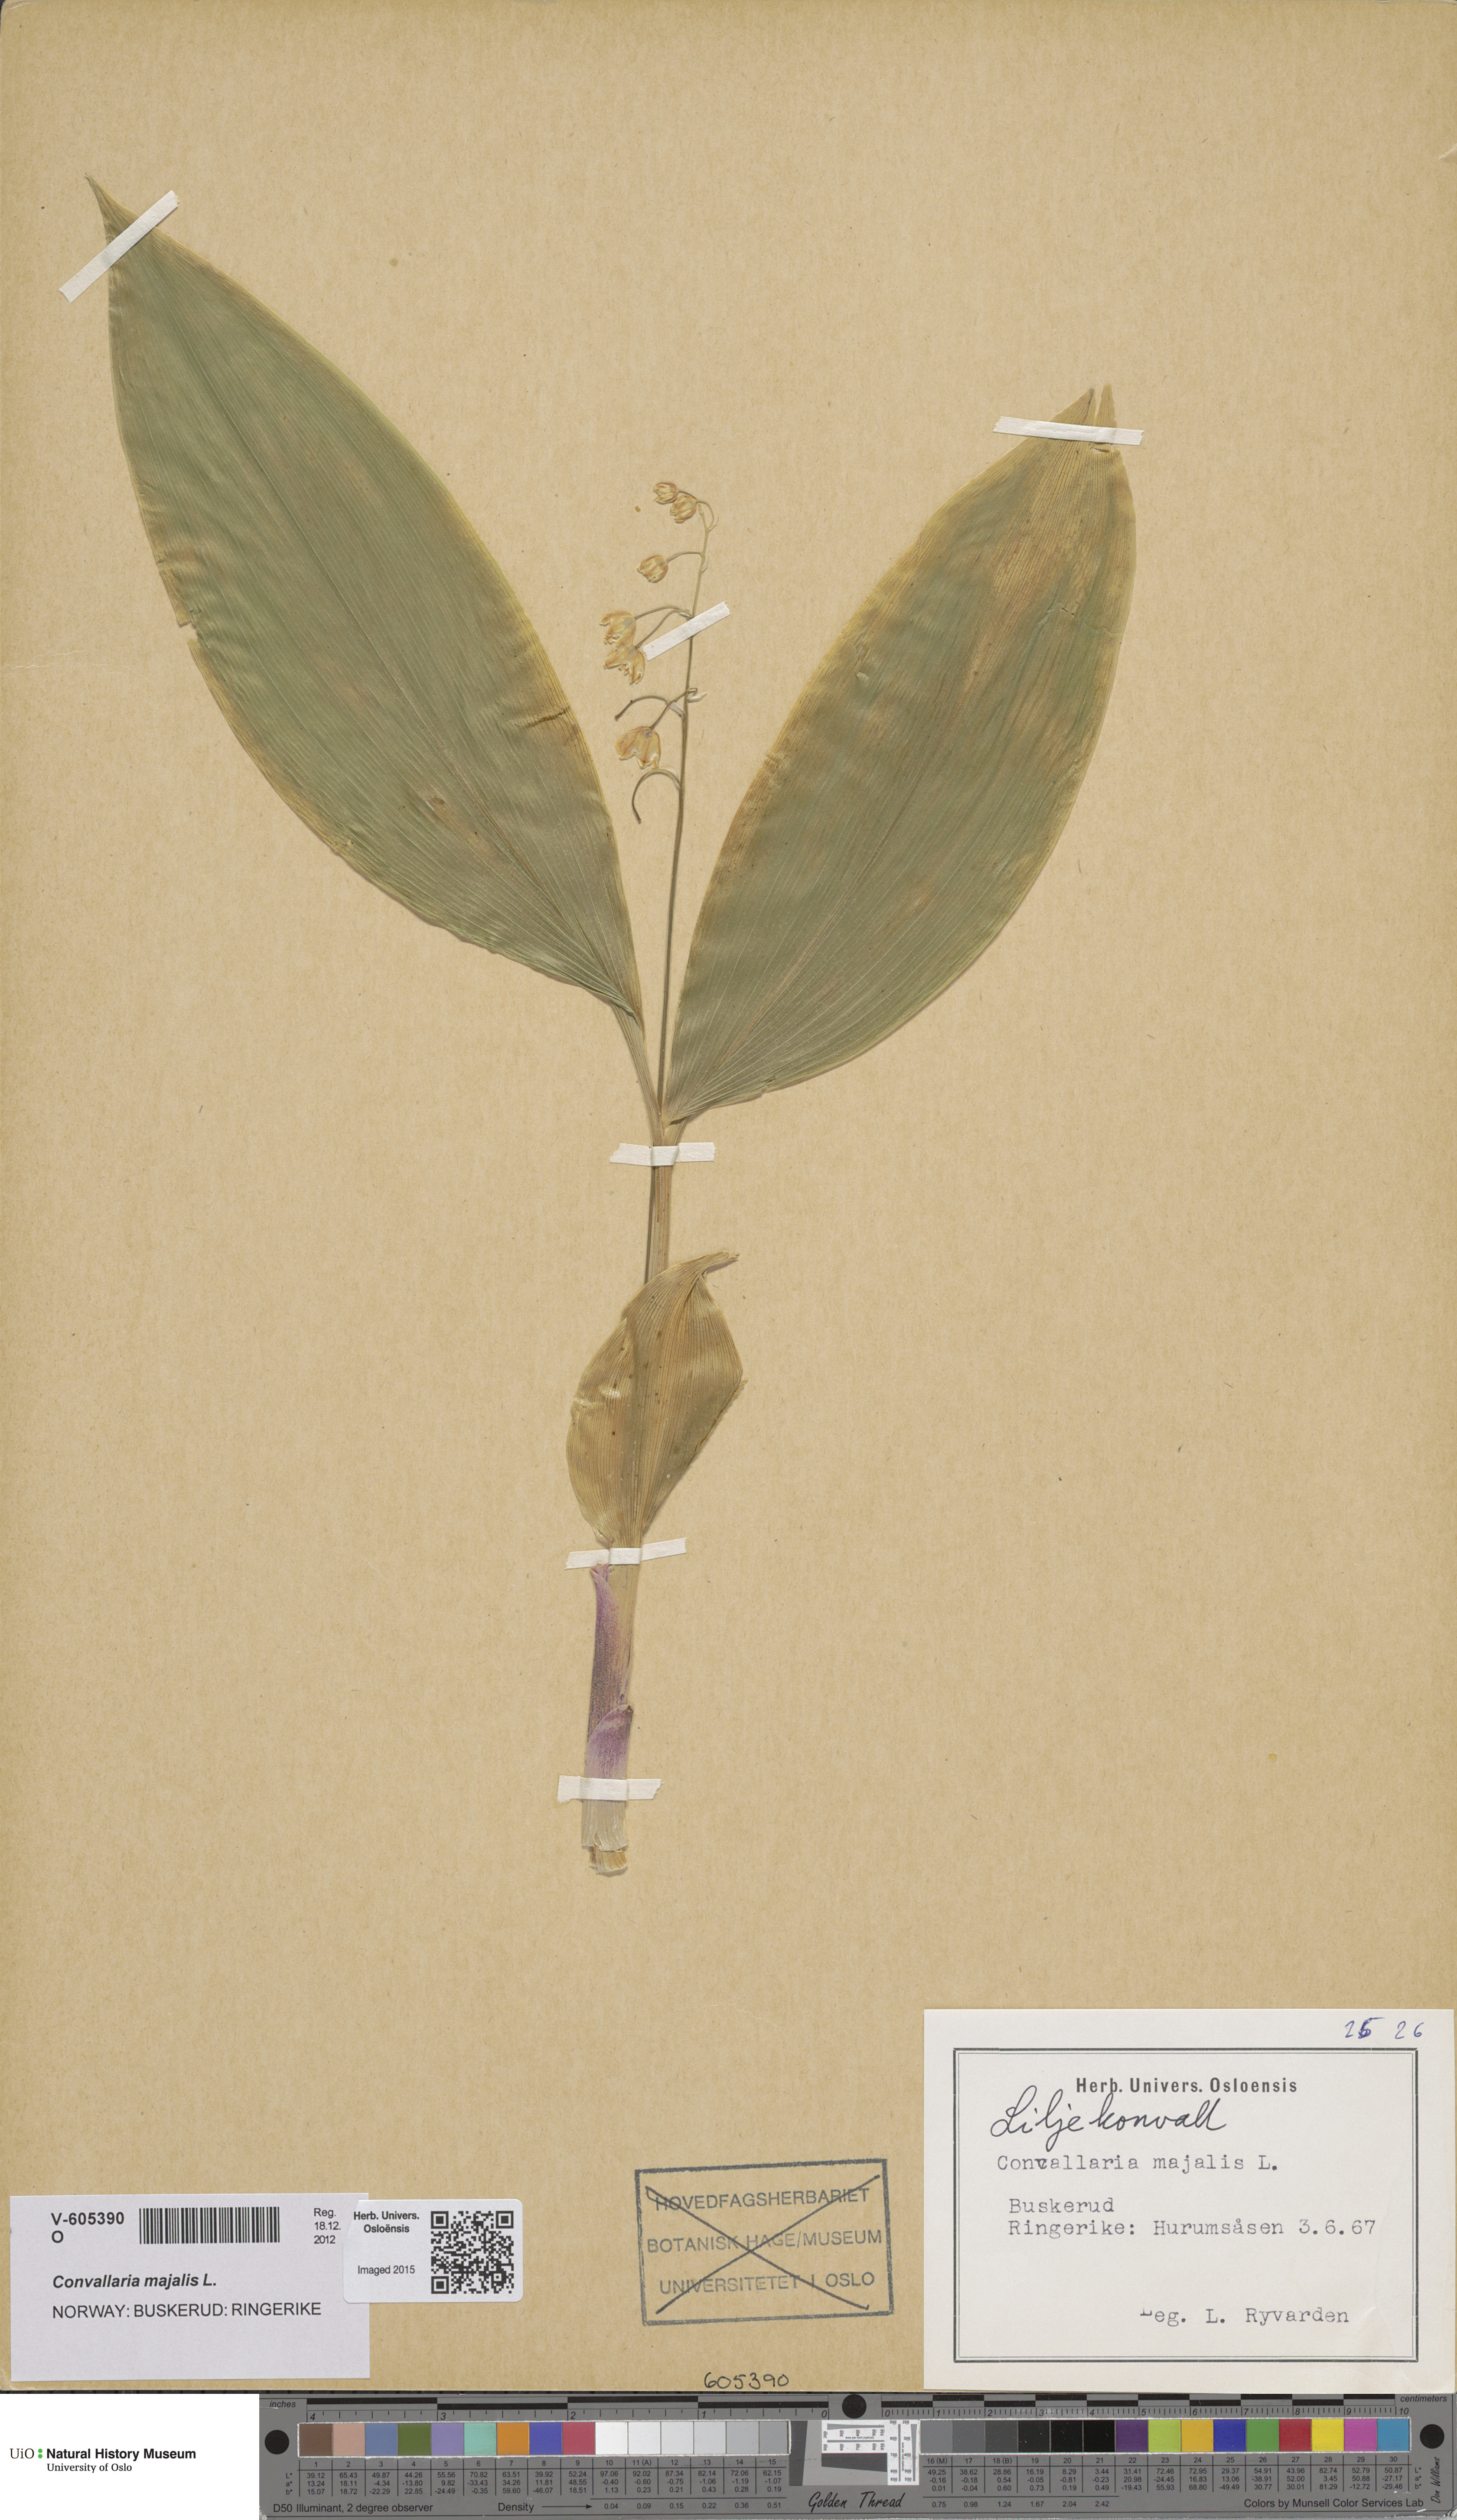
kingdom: Plantae
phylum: Tracheophyta
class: Liliopsida
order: Asparagales
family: Asparagaceae
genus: Convallaria
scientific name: Convallaria majalis
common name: Lily-of-the-valley
